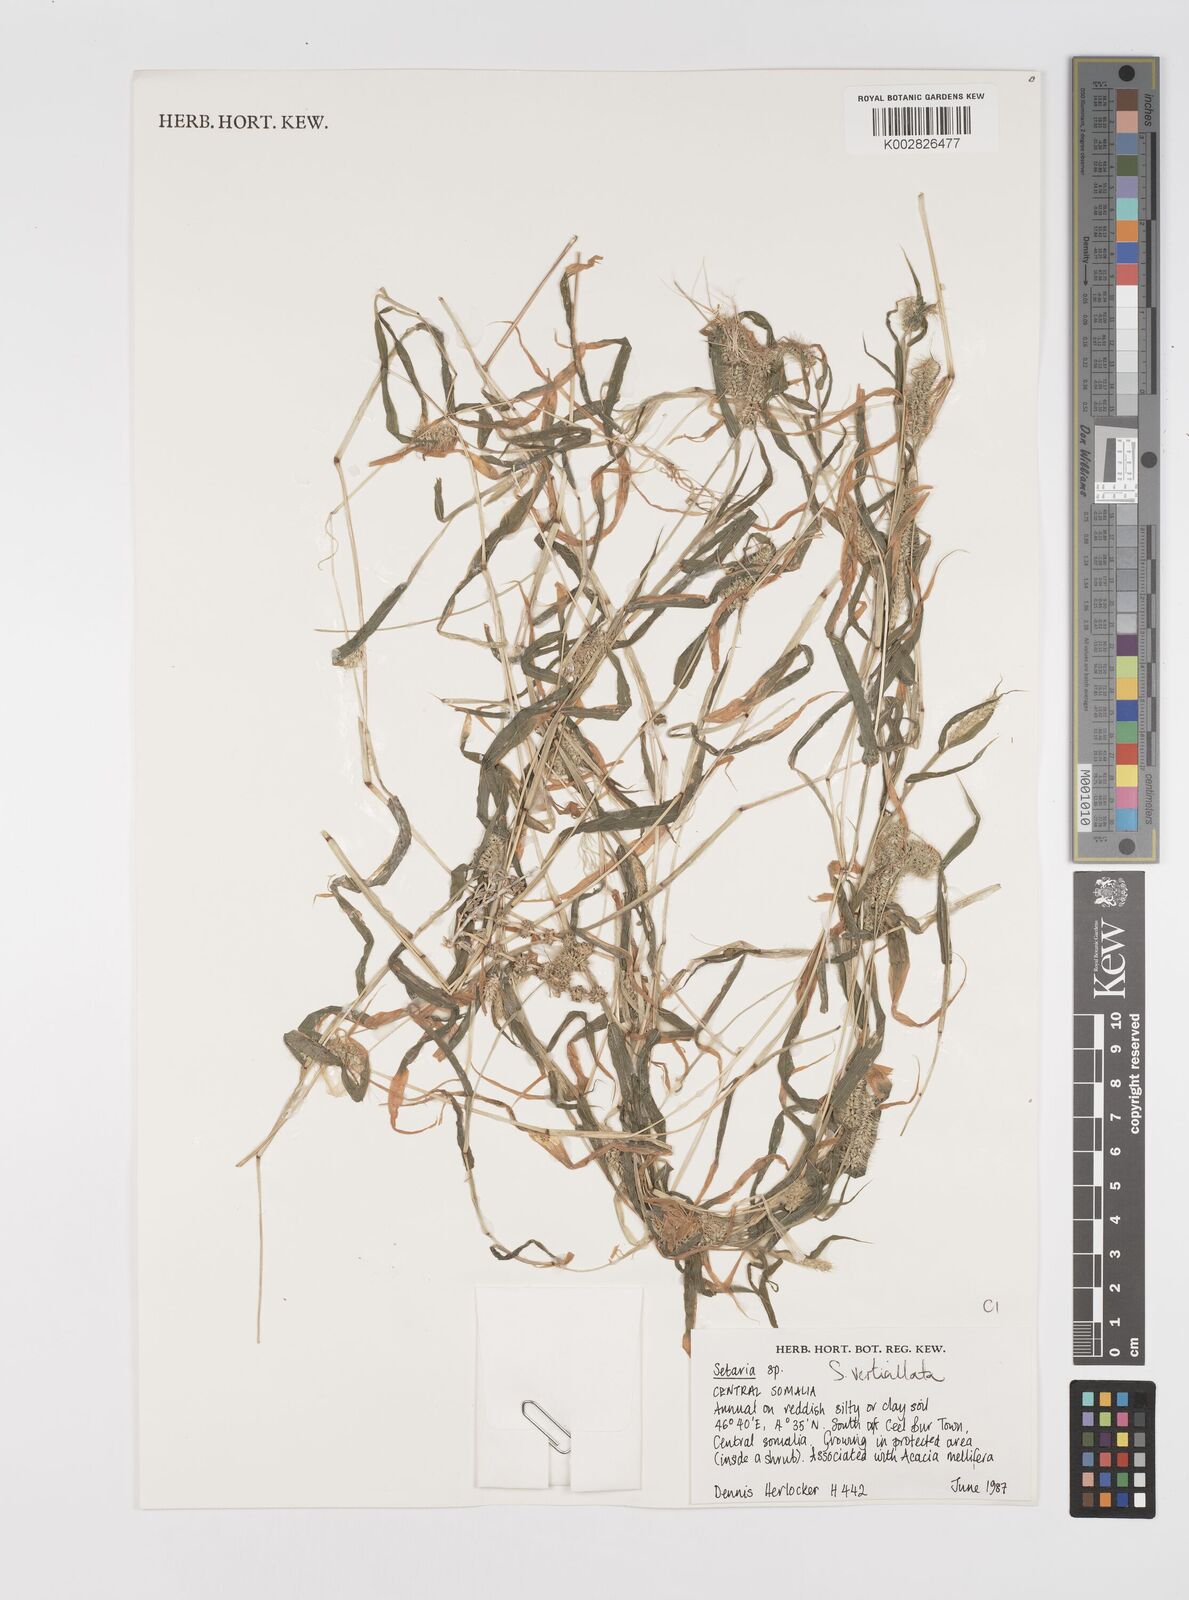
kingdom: Plantae
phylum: Tracheophyta
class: Liliopsida
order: Poales
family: Poaceae
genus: Setaria
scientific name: Setaria verticillata
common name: Hooked bristlegrass
